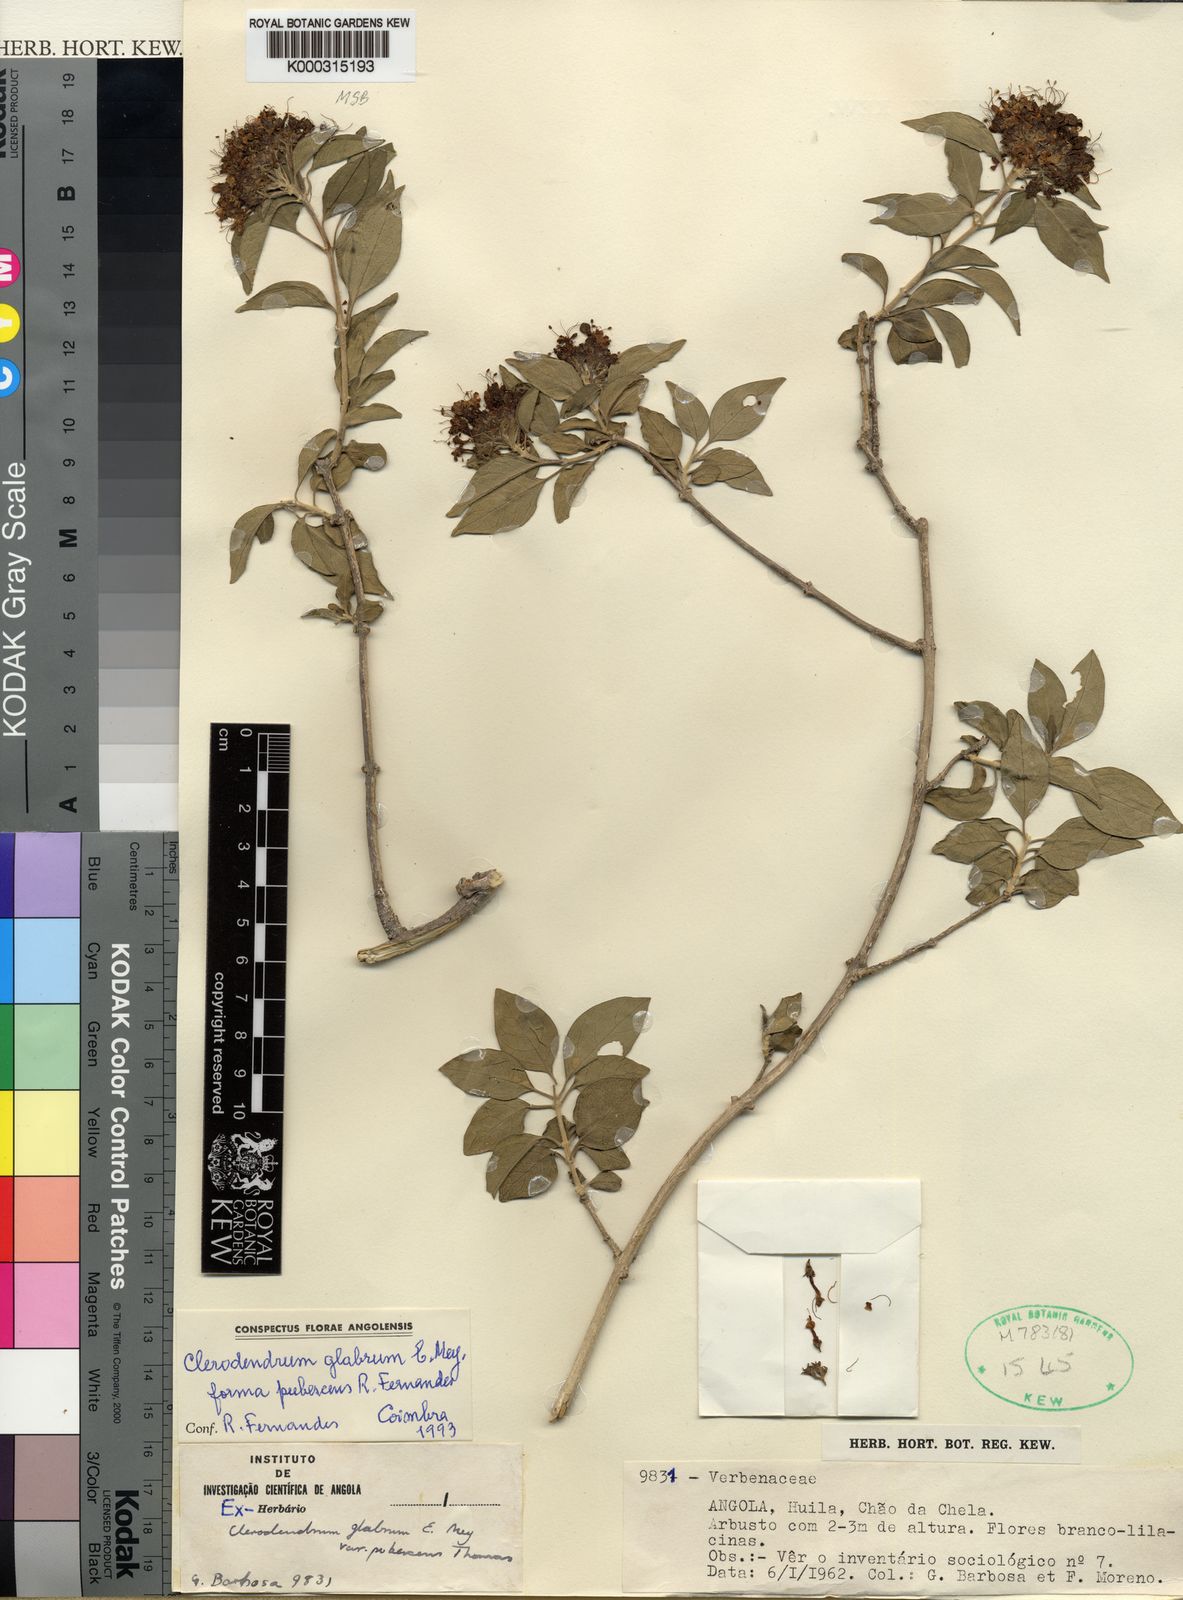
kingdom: Plantae
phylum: Tracheophyta
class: Magnoliopsida
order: Lamiales
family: Lamiaceae
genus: Volkameria
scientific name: Volkameria glabra
